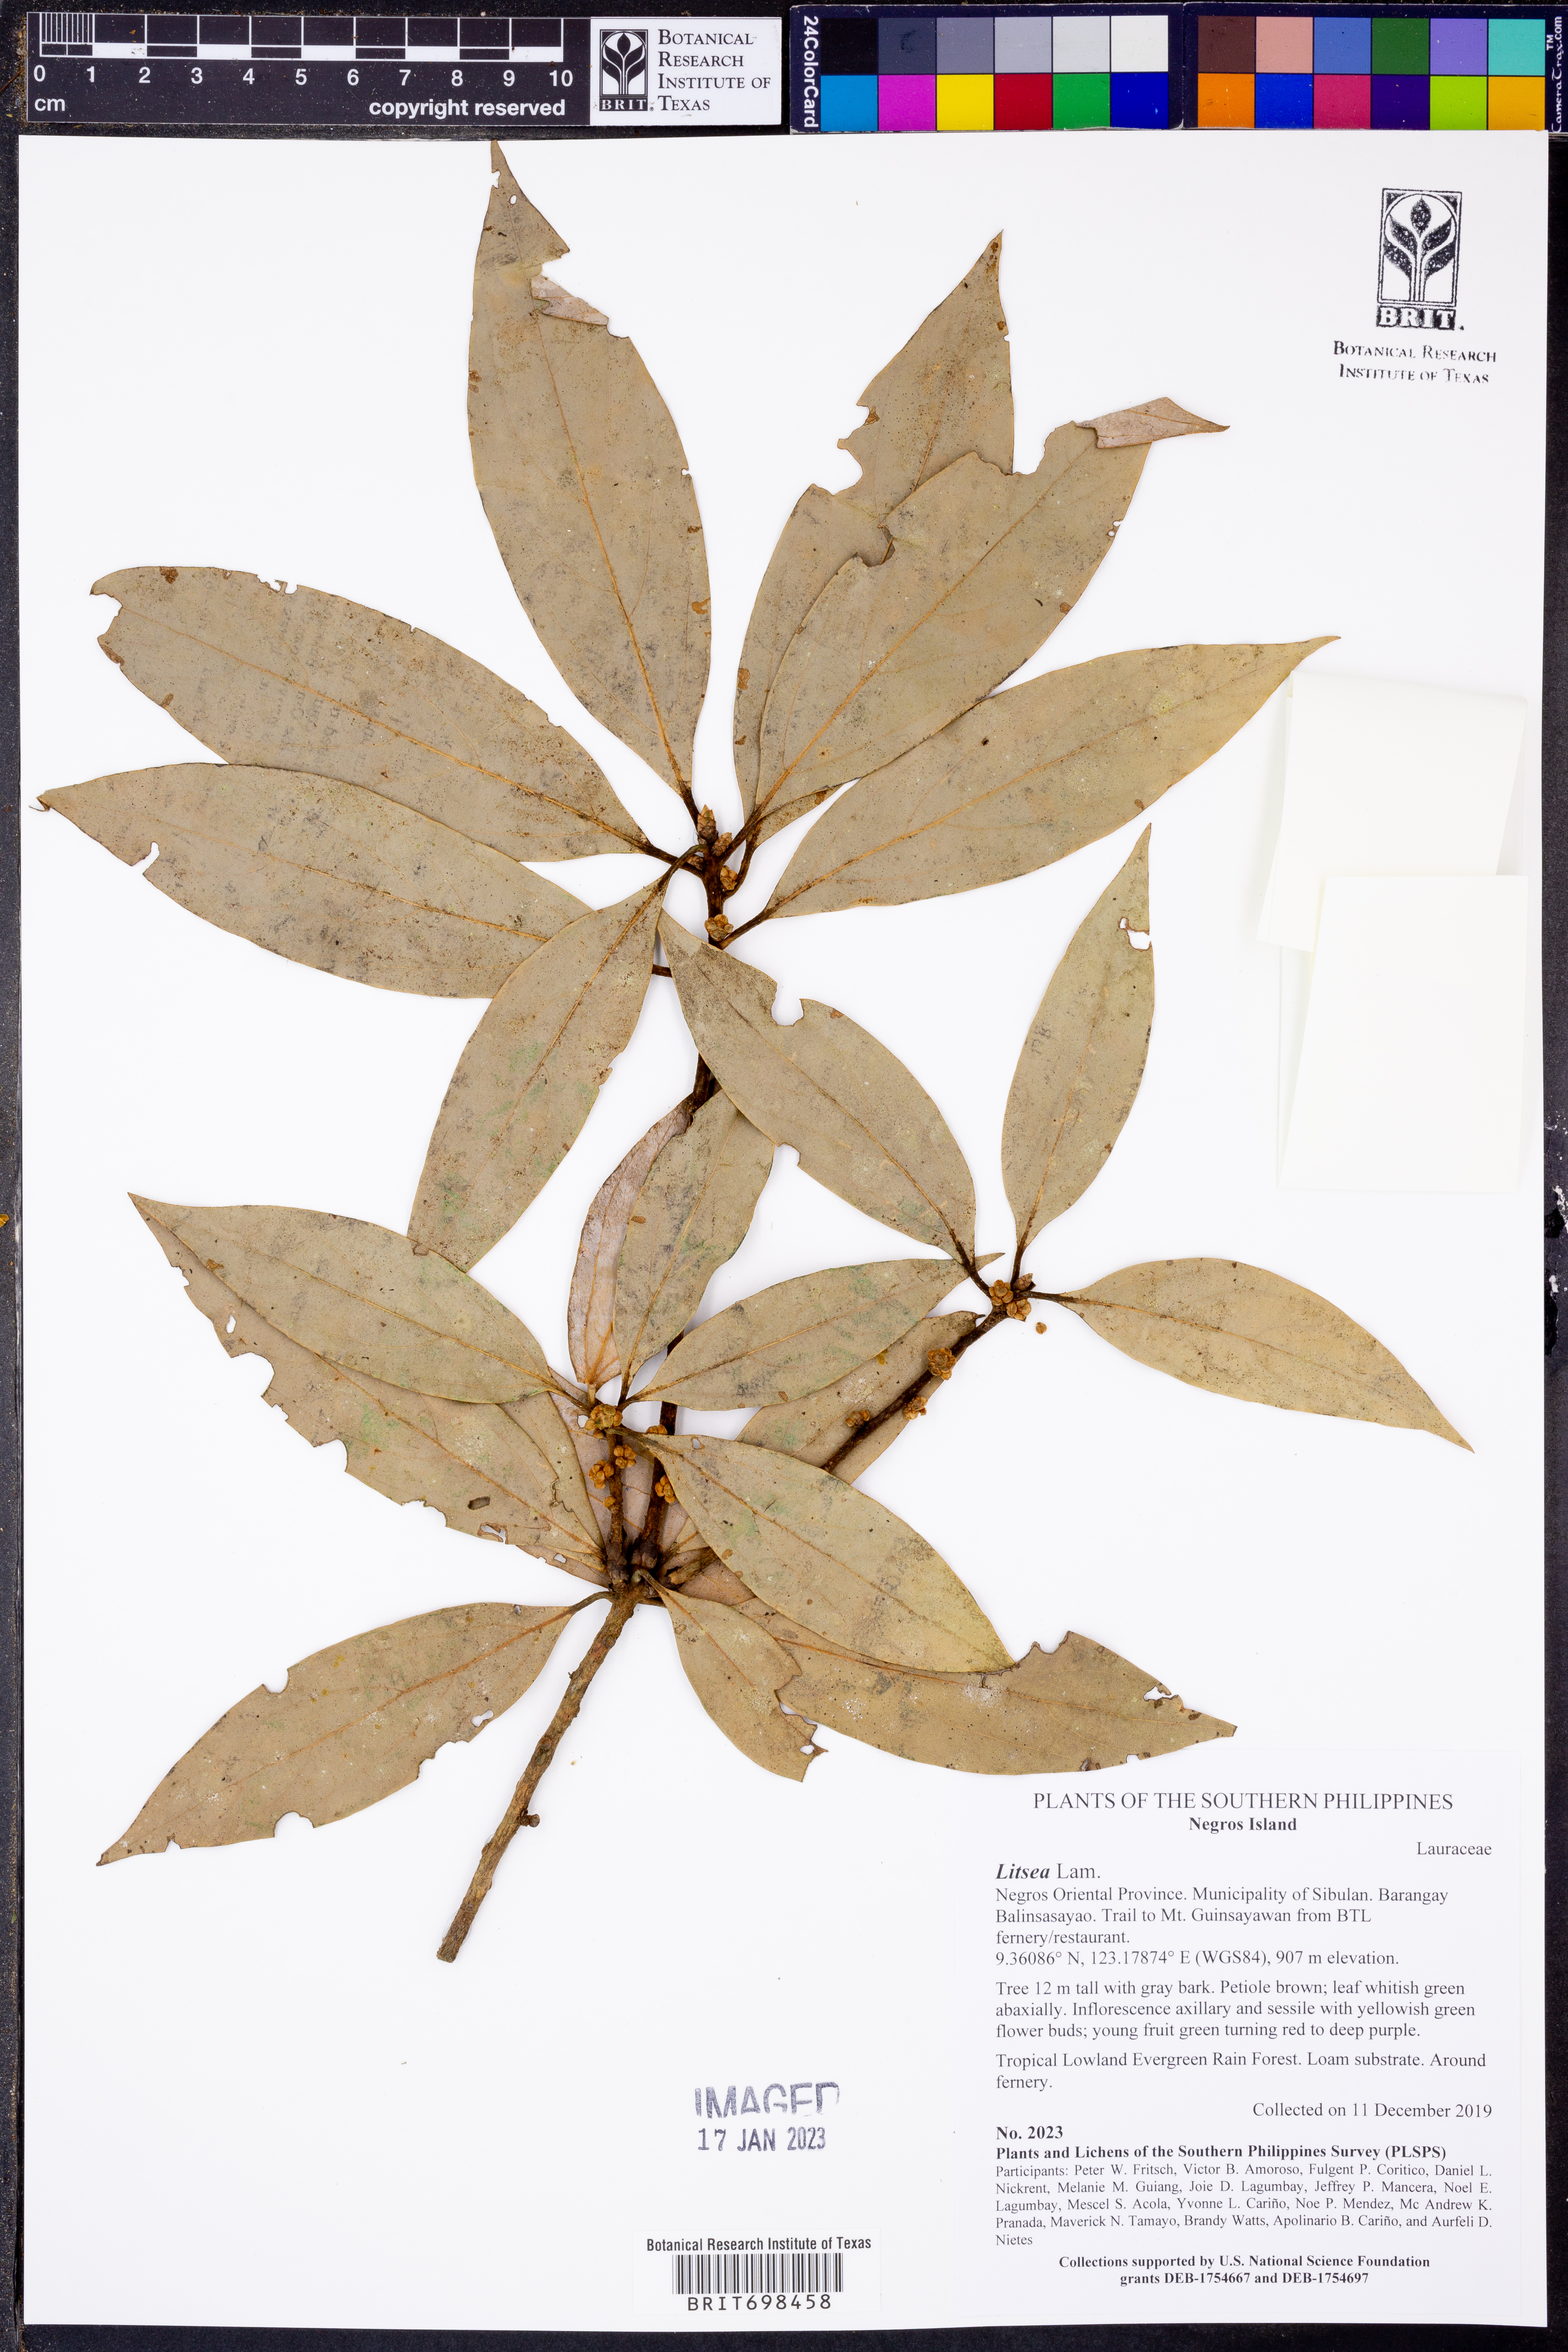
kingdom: Plantae
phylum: Tracheophyta
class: Magnoliopsida
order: Laurales
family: Lauraceae
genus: Litsea
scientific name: Litsea
